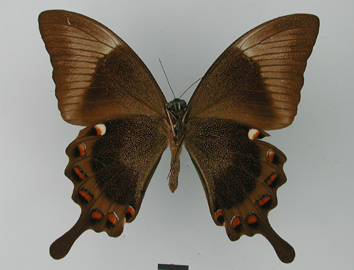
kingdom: Animalia
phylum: Arthropoda
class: Insecta
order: Lepidoptera
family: Papilionidae
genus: Papilio
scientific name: Papilio daedalus
